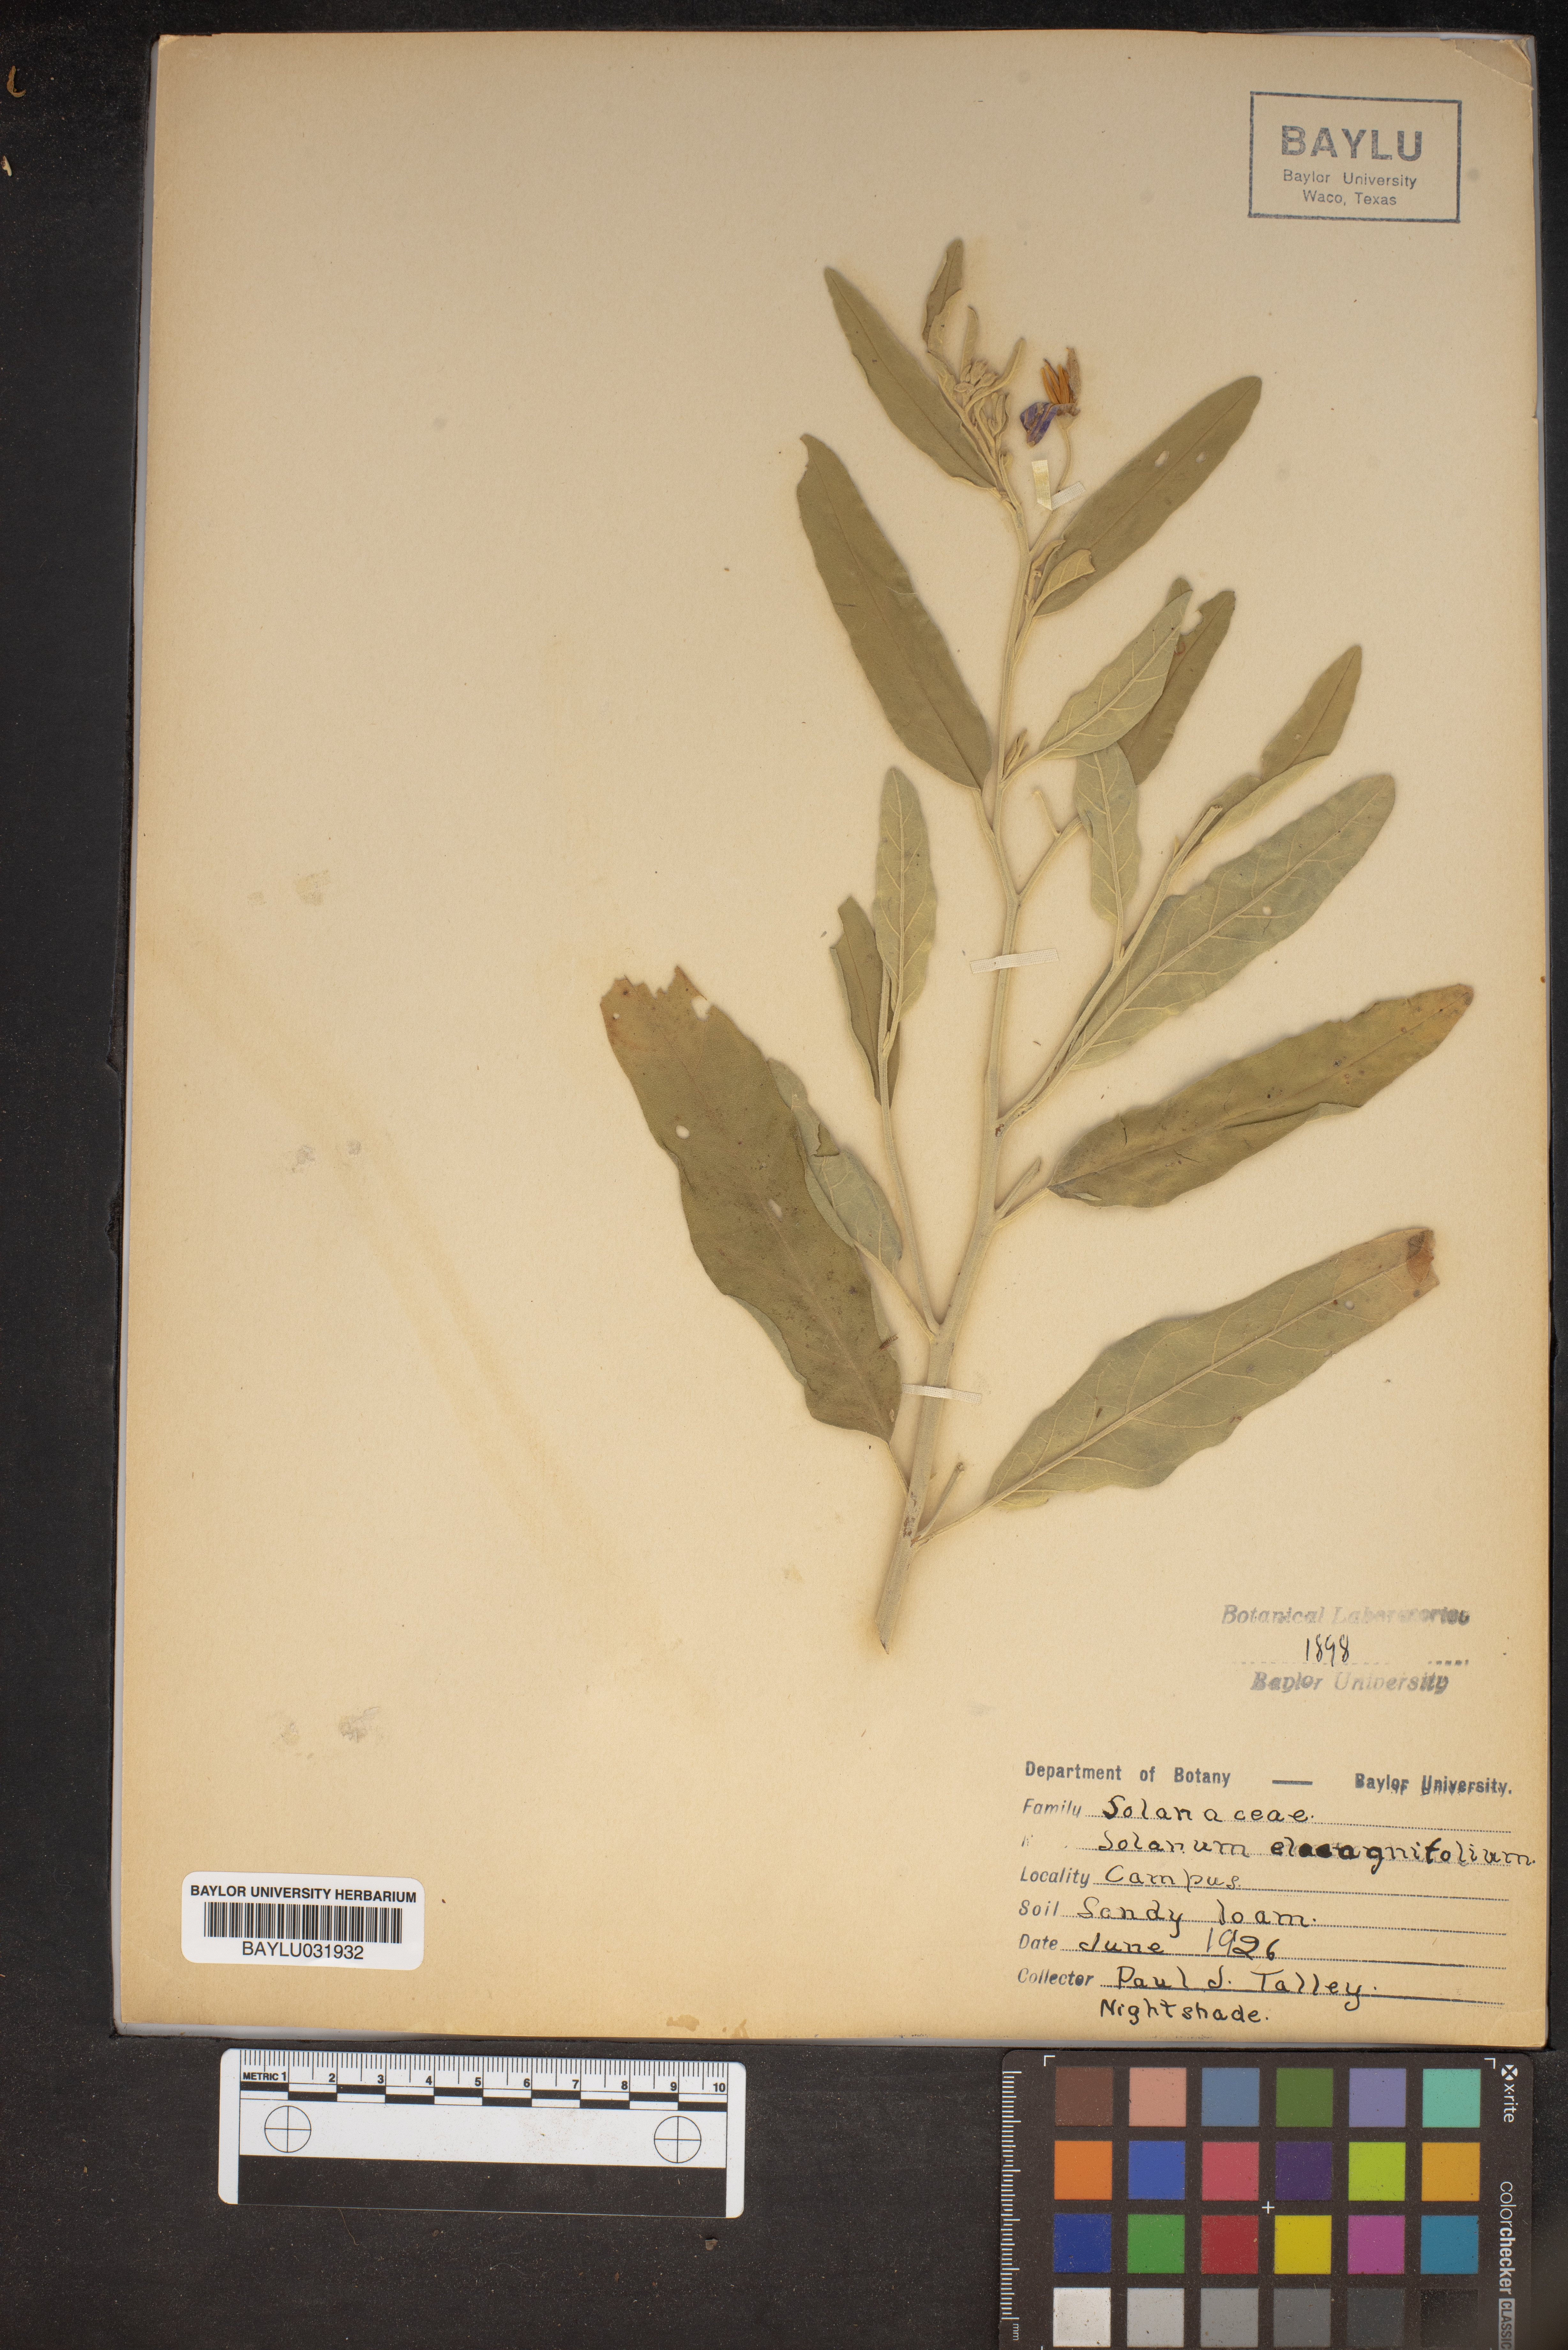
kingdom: Plantae
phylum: Tracheophyta
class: Magnoliopsida
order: Solanales
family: Solanaceae
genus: Solanum
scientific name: Solanum elaeagnifolium
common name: Silverleaf nightshade
